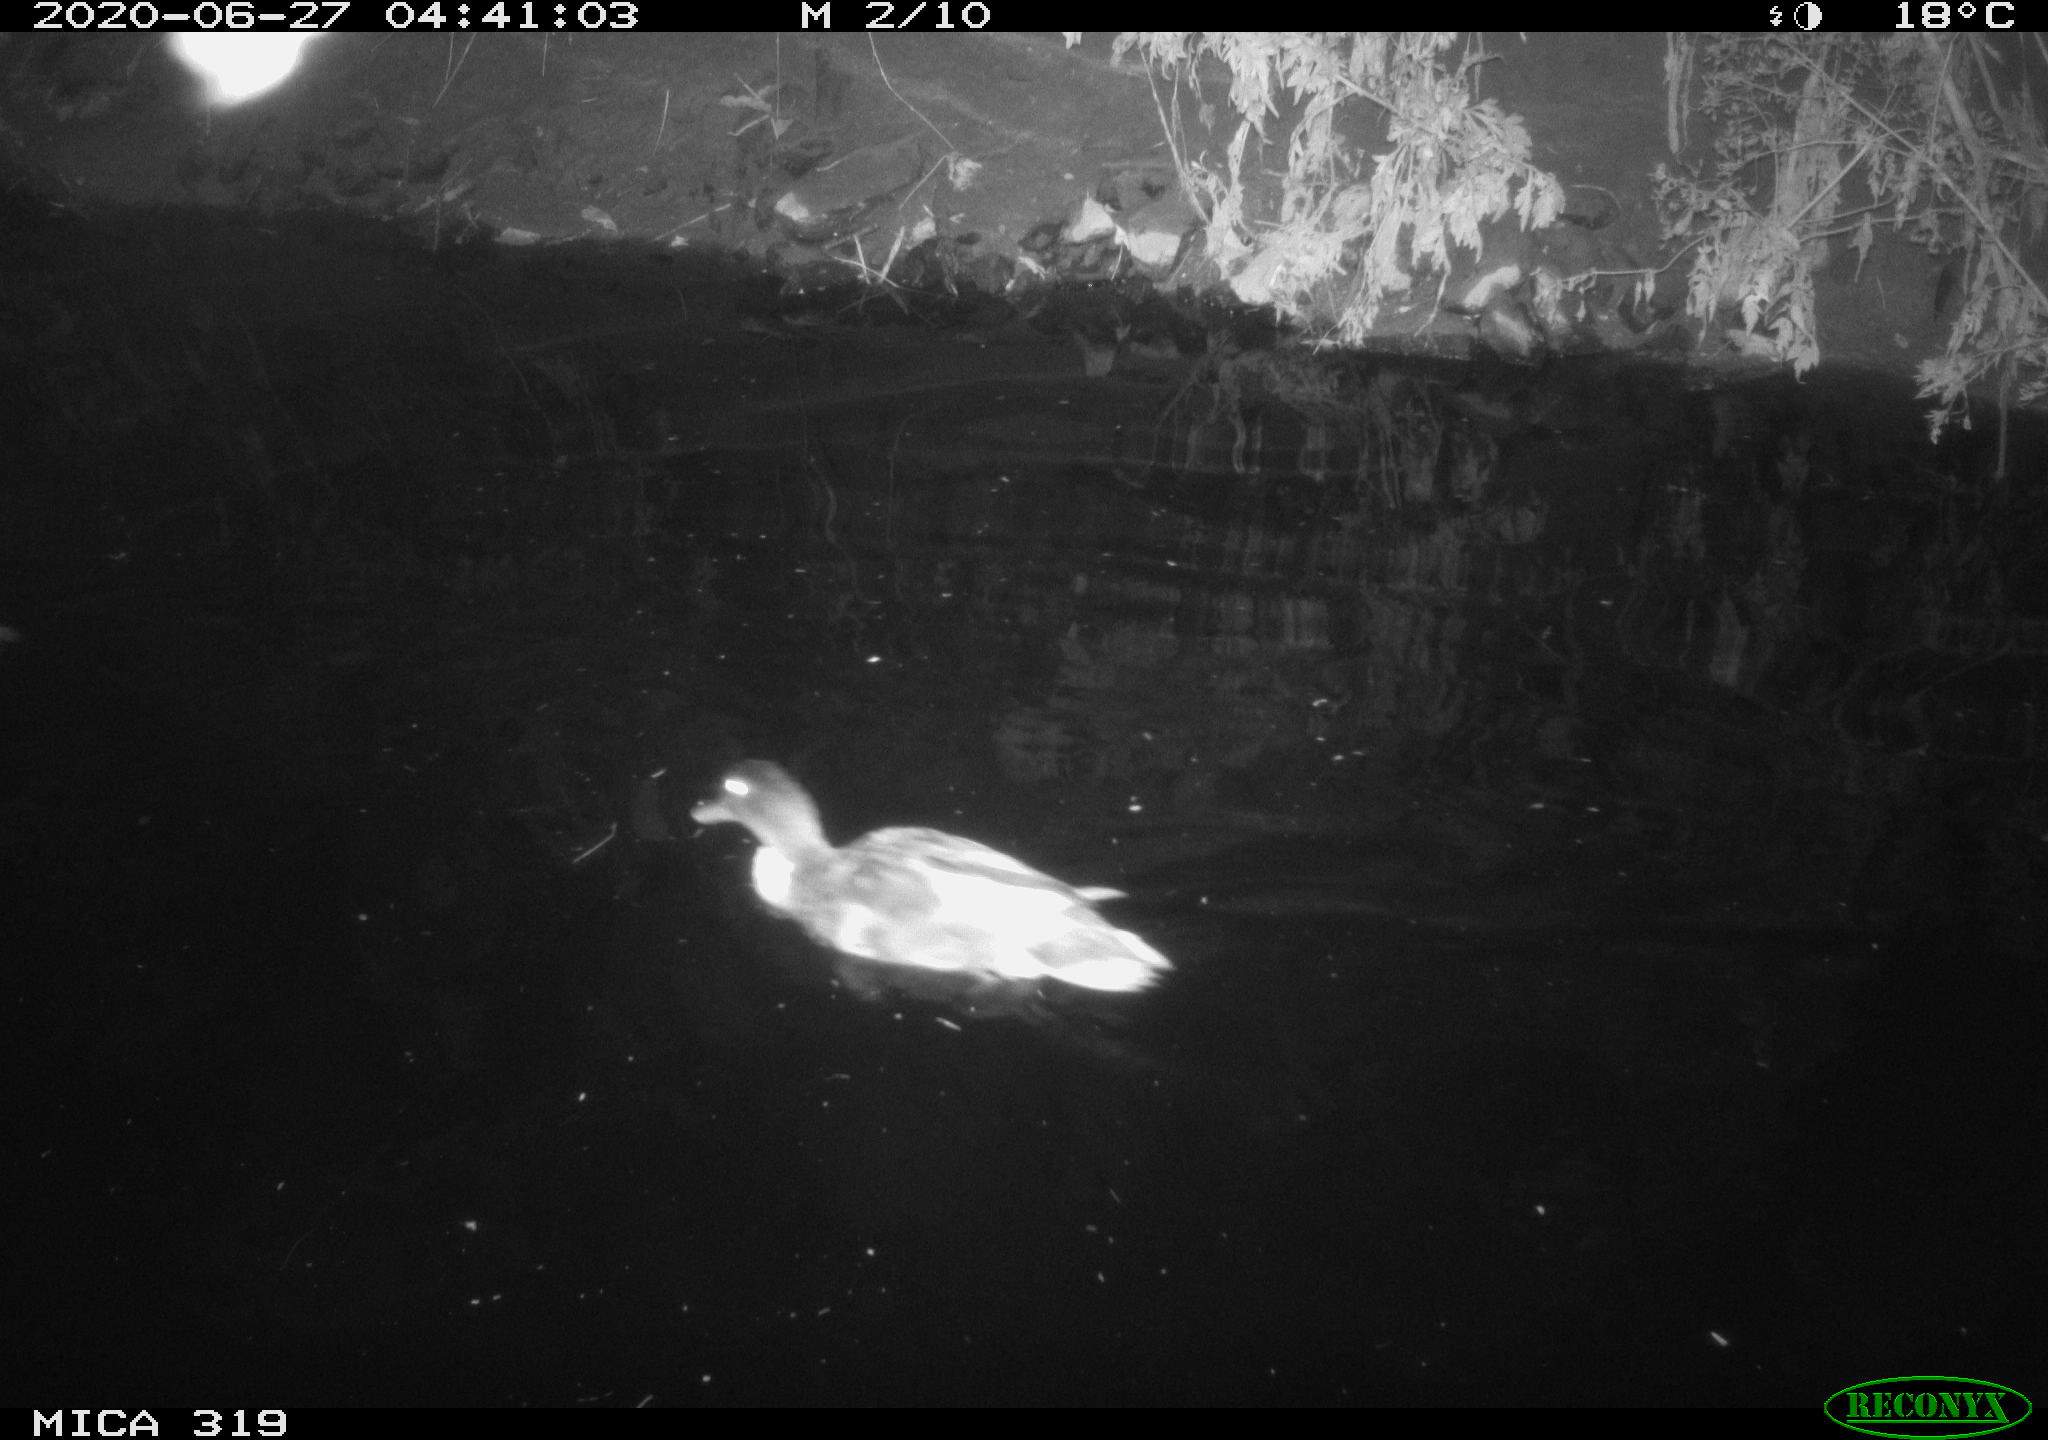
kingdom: Animalia
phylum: Chordata
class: Aves
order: Anseriformes
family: Anatidae
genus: Anas
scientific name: Anas platyrhynchos
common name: Mallard
